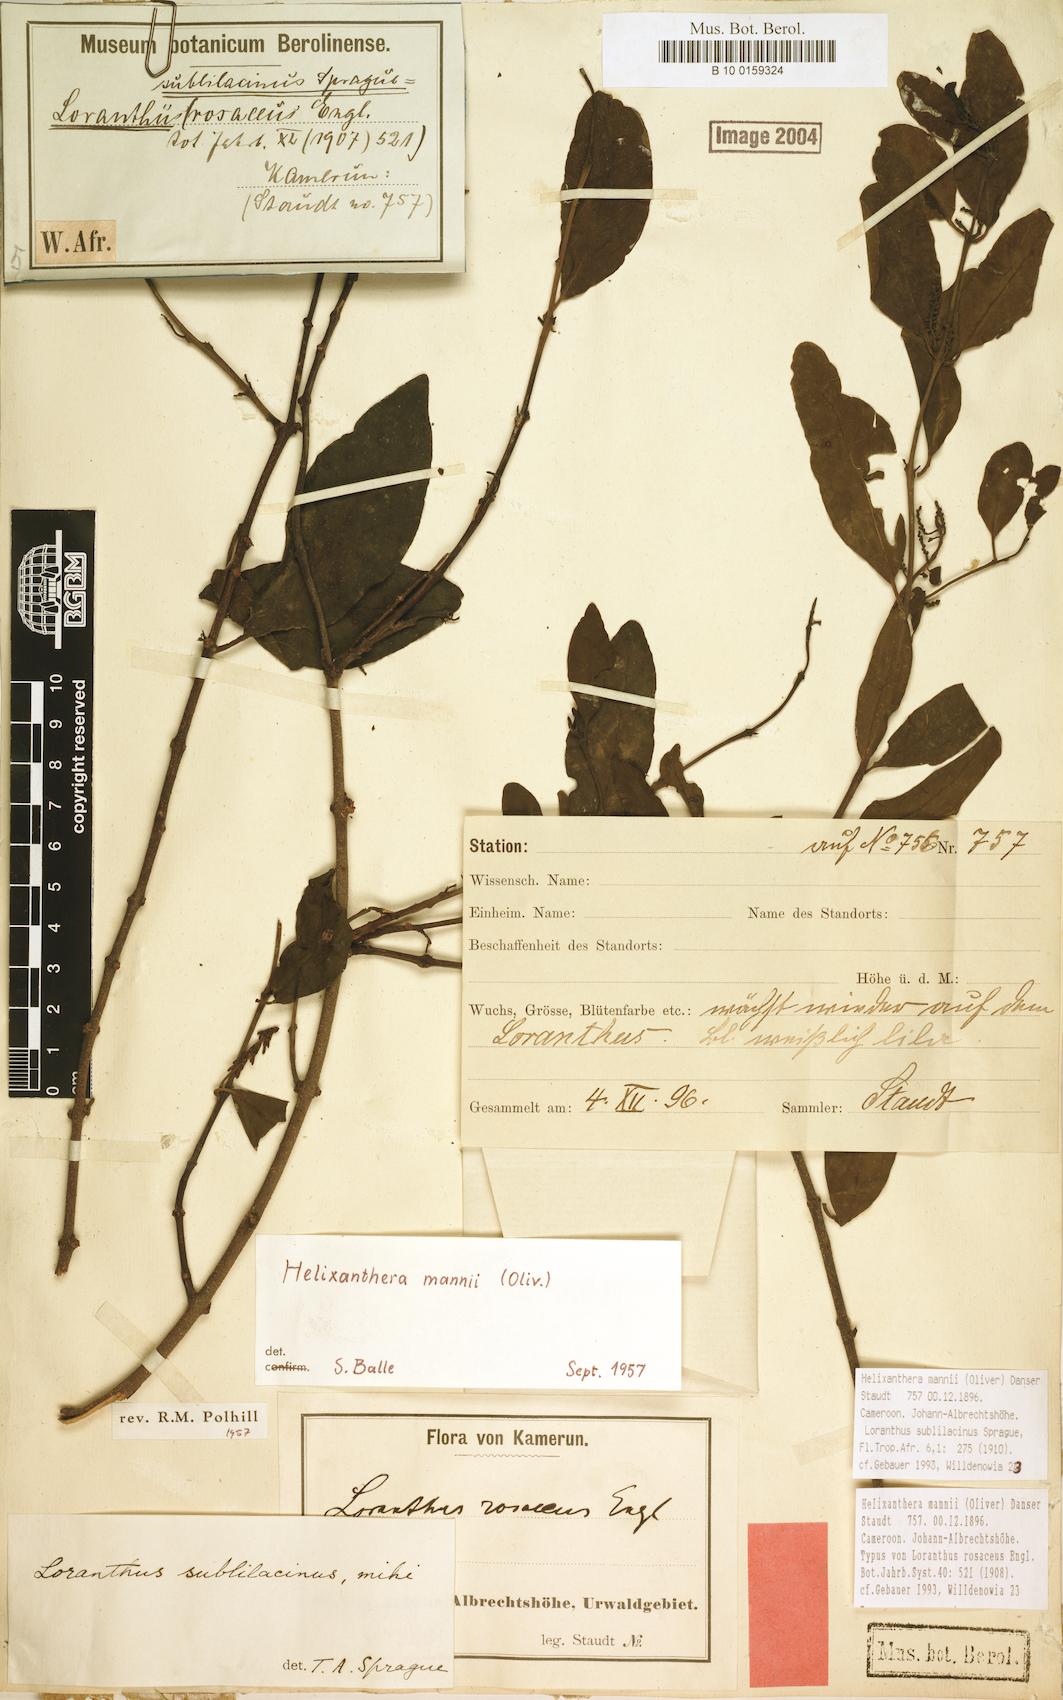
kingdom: Plantae
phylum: Tracheophyta
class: Magnoliopsida
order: Santalales
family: Loranthaceae
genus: Helixanthera
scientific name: Helixanthera mannii
